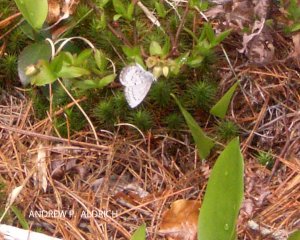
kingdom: Animalia
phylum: Arthropoda
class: Insecta
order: Lepidoptera
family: Lycaenidae
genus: Celastrina
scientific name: Celastrina lucia
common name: Northern Spring Azure
